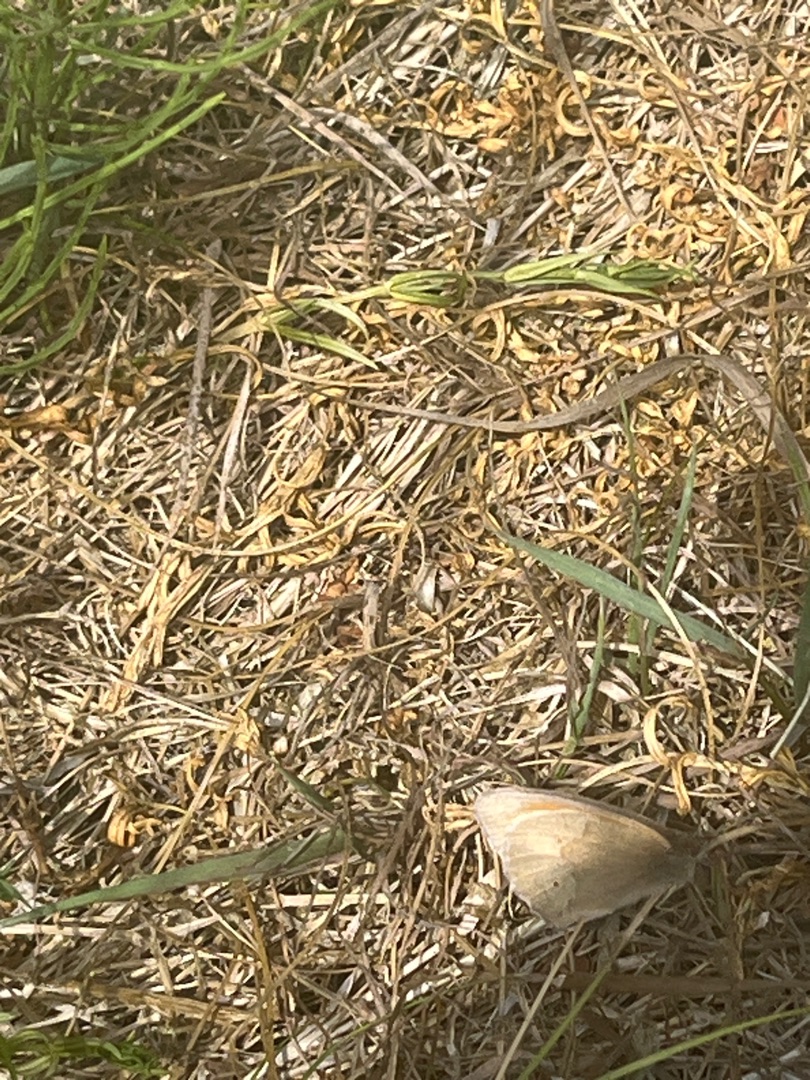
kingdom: Animalia
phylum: Arthropoda
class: Insecta
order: Lepidoptera
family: Nymphalidae
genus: Maniola
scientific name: Maniola jurtina
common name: Græsrandøje
